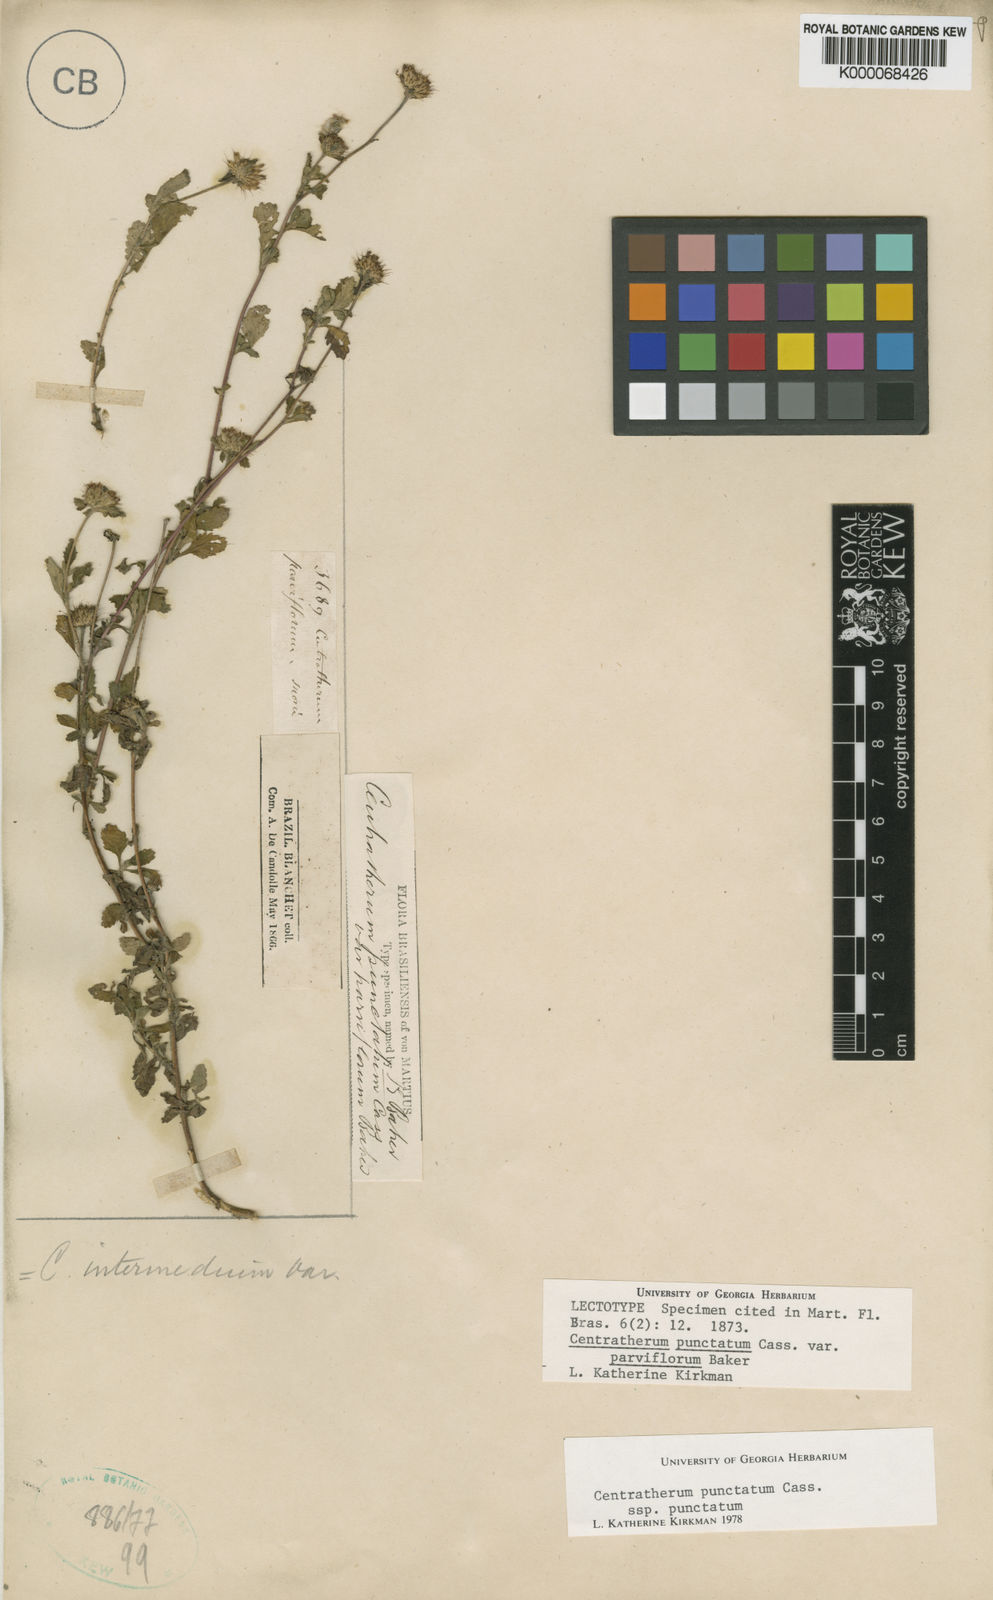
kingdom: Plantae
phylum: Tracheophyta
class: Magnoliopsida
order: Asterales
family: Asteraceae
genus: Centratherum
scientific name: Centratherum punctatum
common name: Larkdaisy
